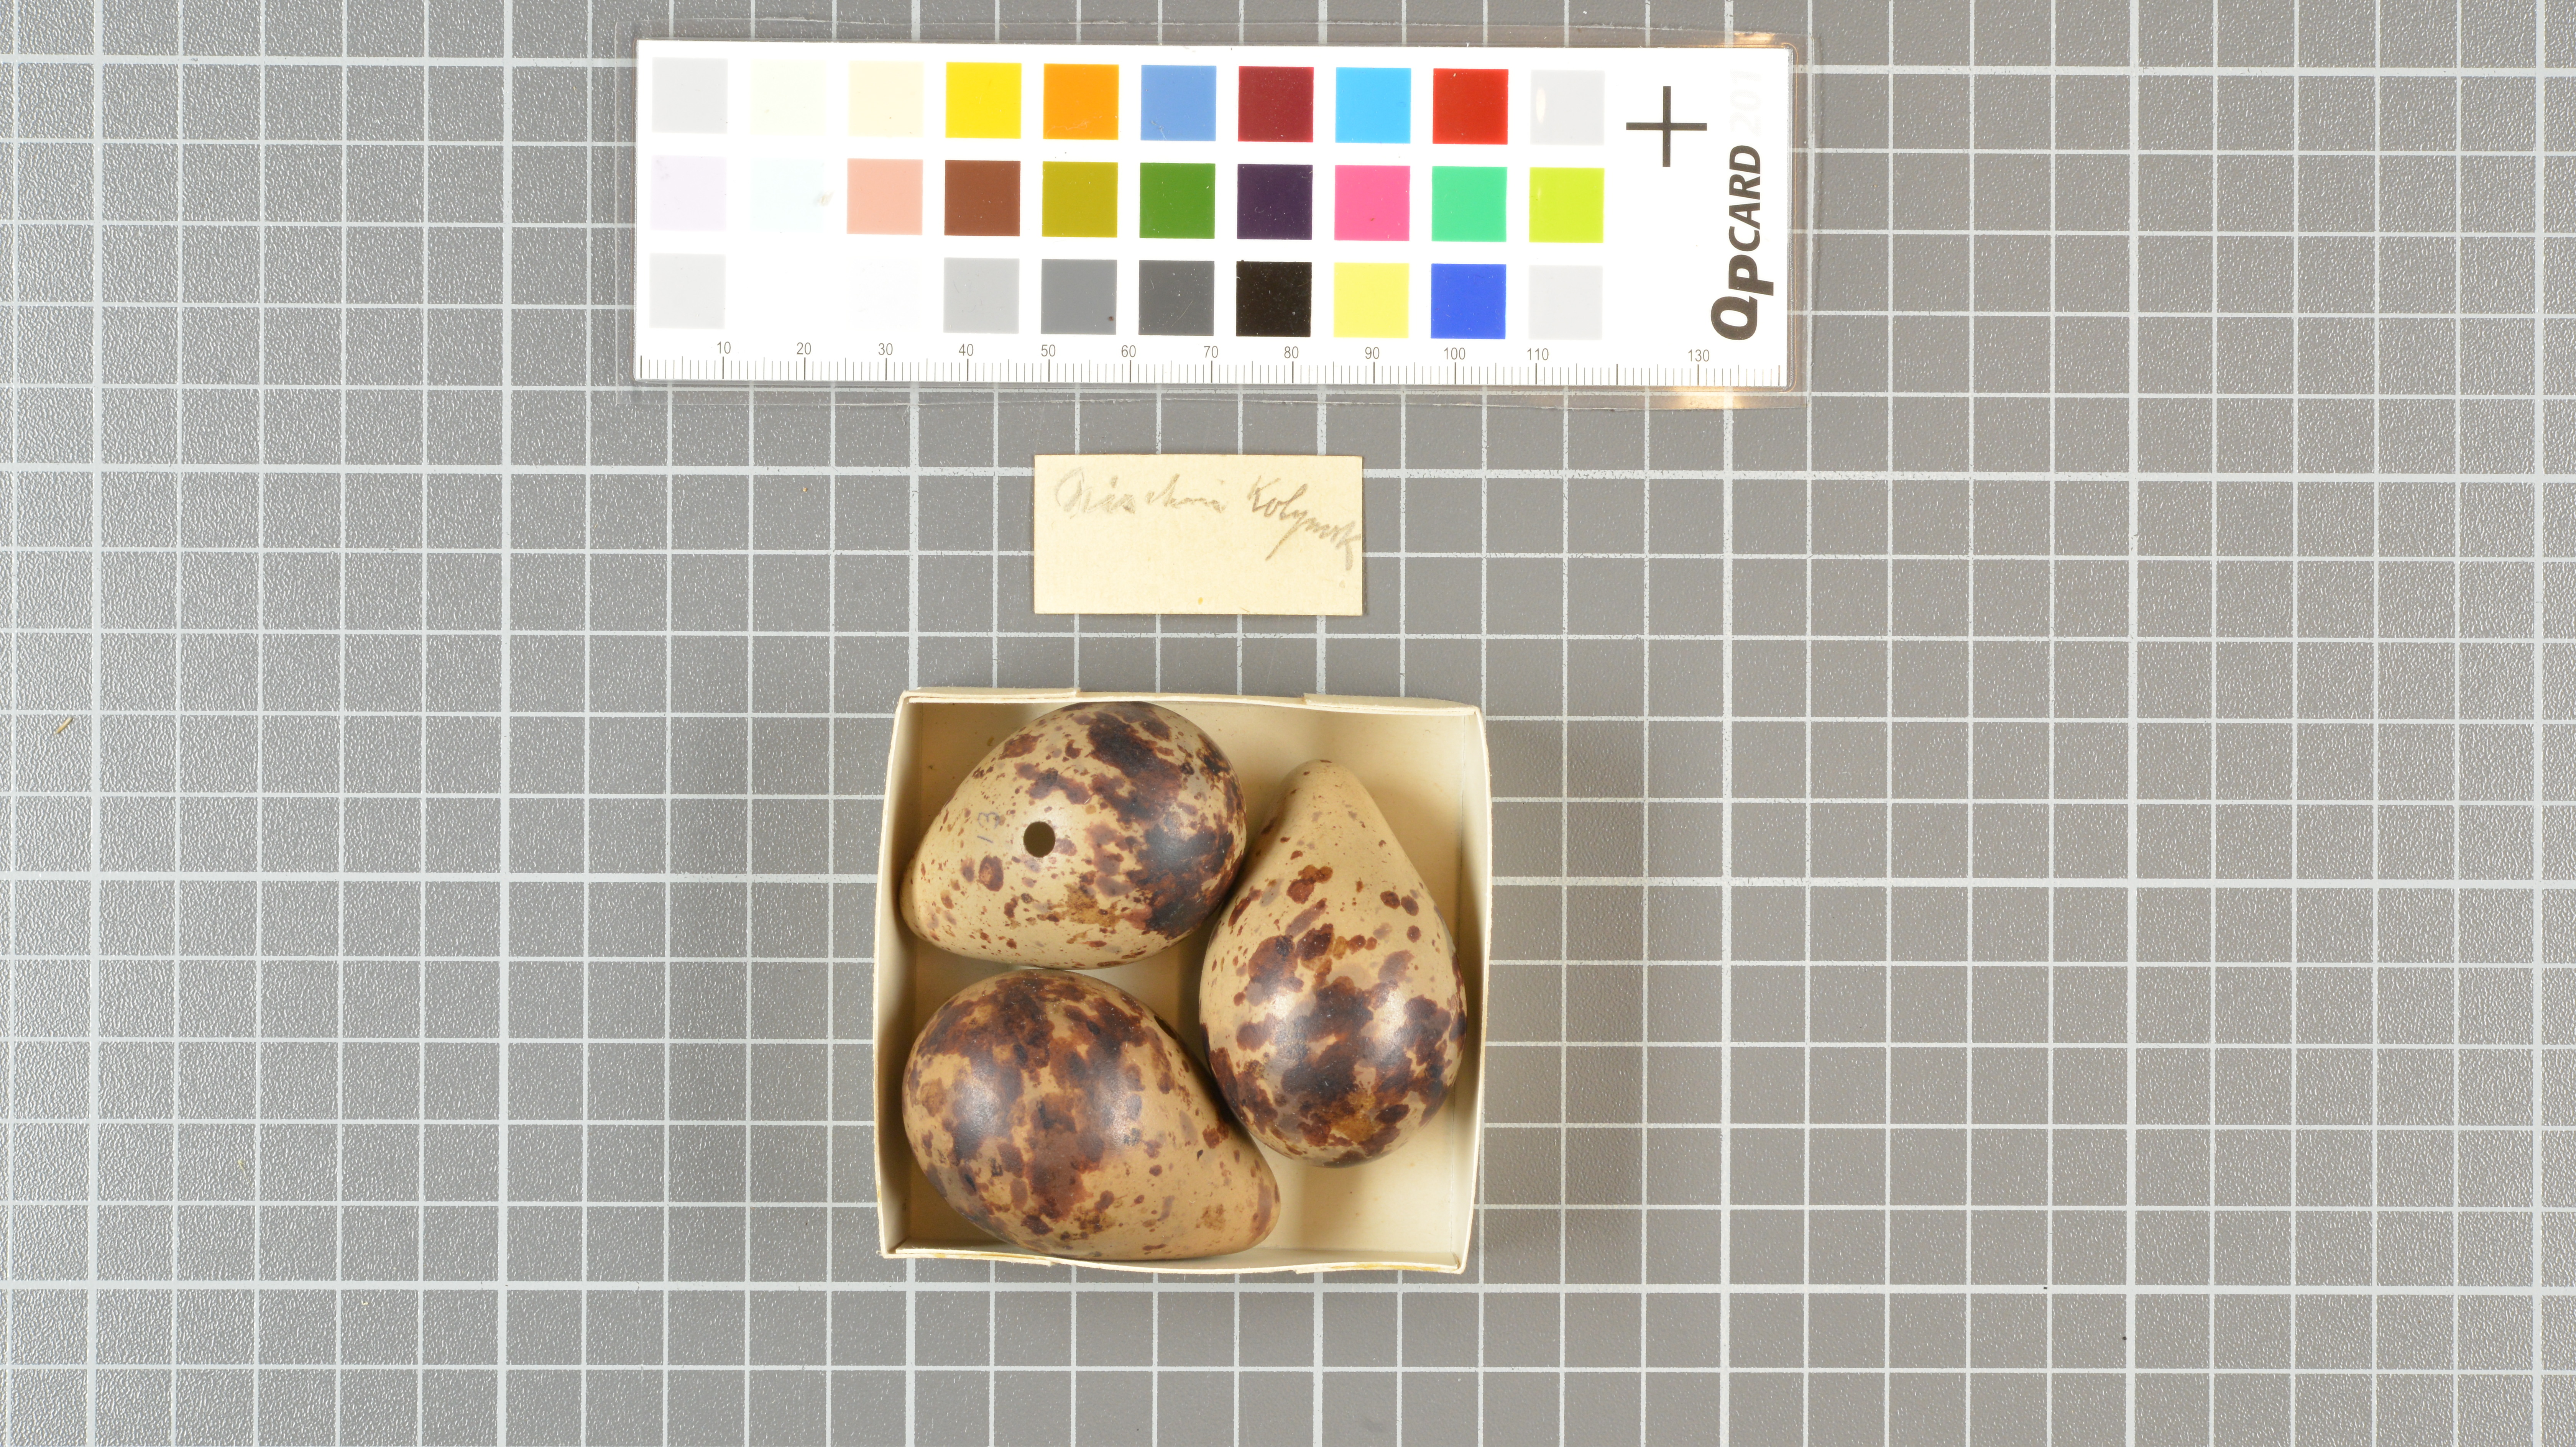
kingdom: Animalia
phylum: Chordata
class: Aves
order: Charadriiformes
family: Scolopacidae
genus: Tringa
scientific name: Tringa erythropus
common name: Spotted redshank
